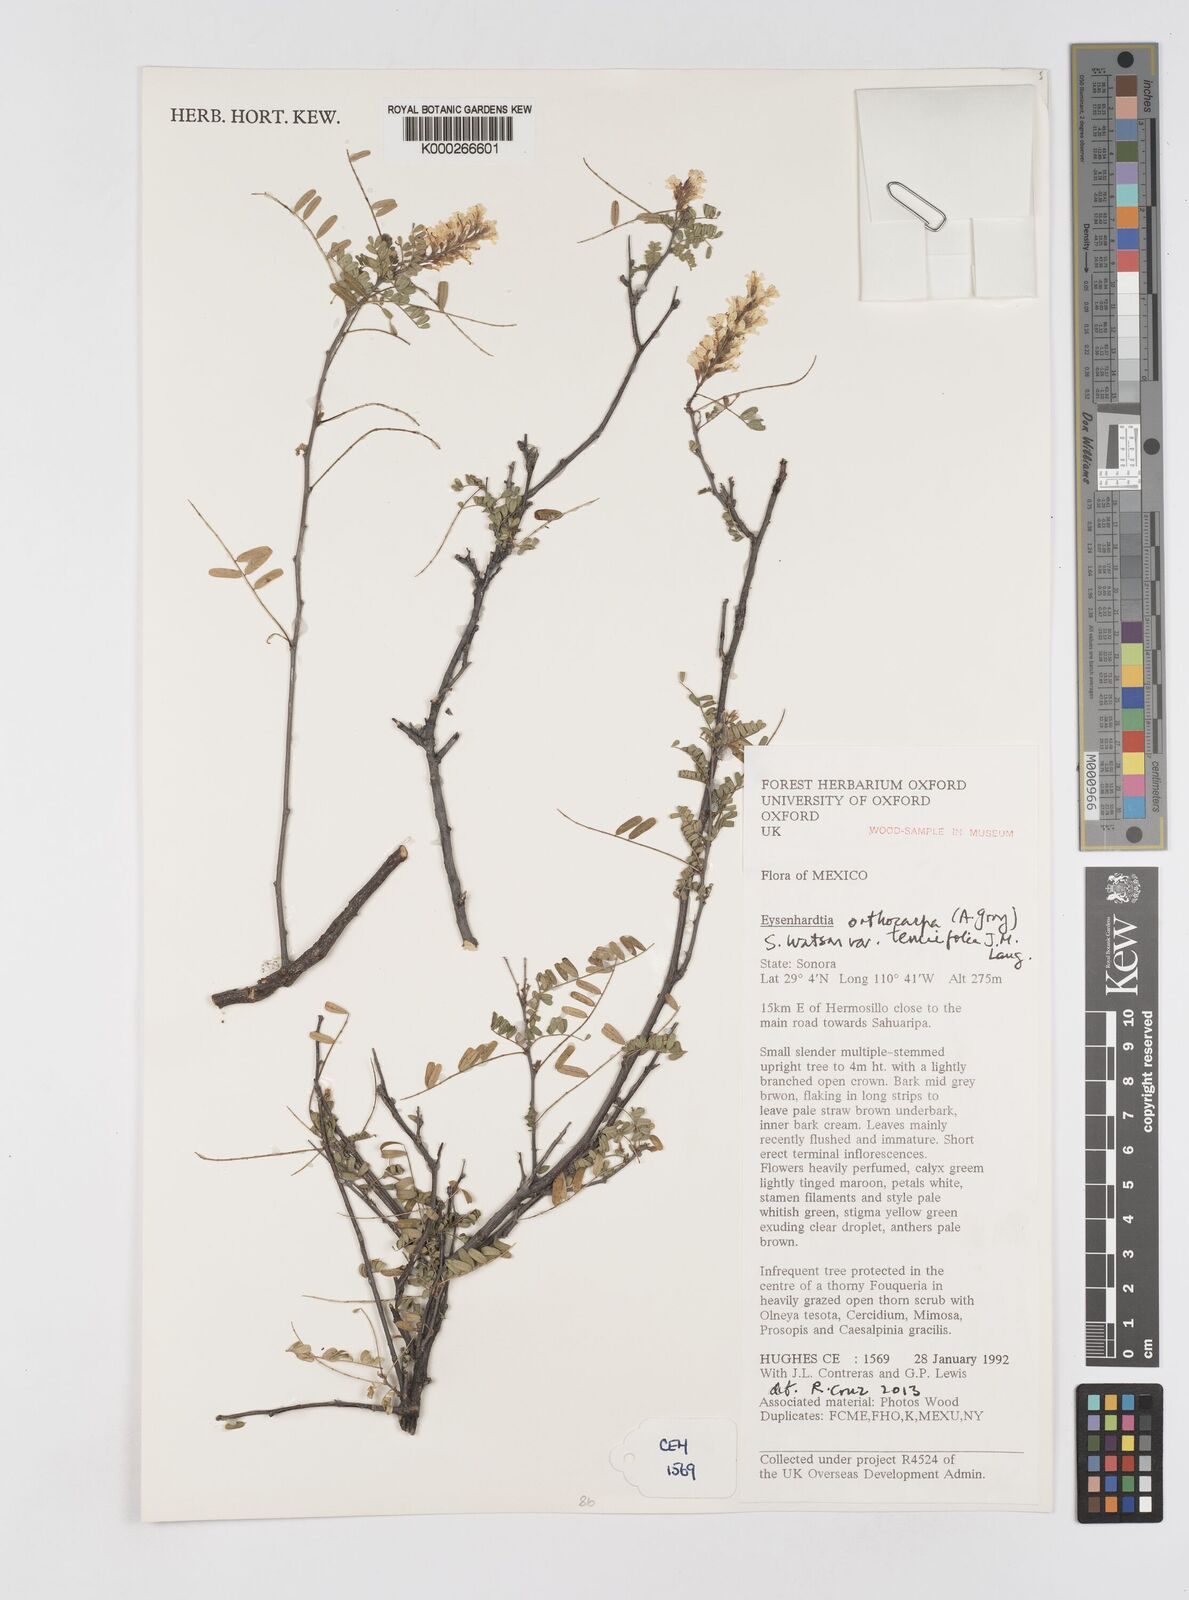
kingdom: Plantae
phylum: Tracheophyta
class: Magnoliopsida
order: Fabales
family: Fabaceae
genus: Eysenhardtia
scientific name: Eysenhardtia orthocarpa
